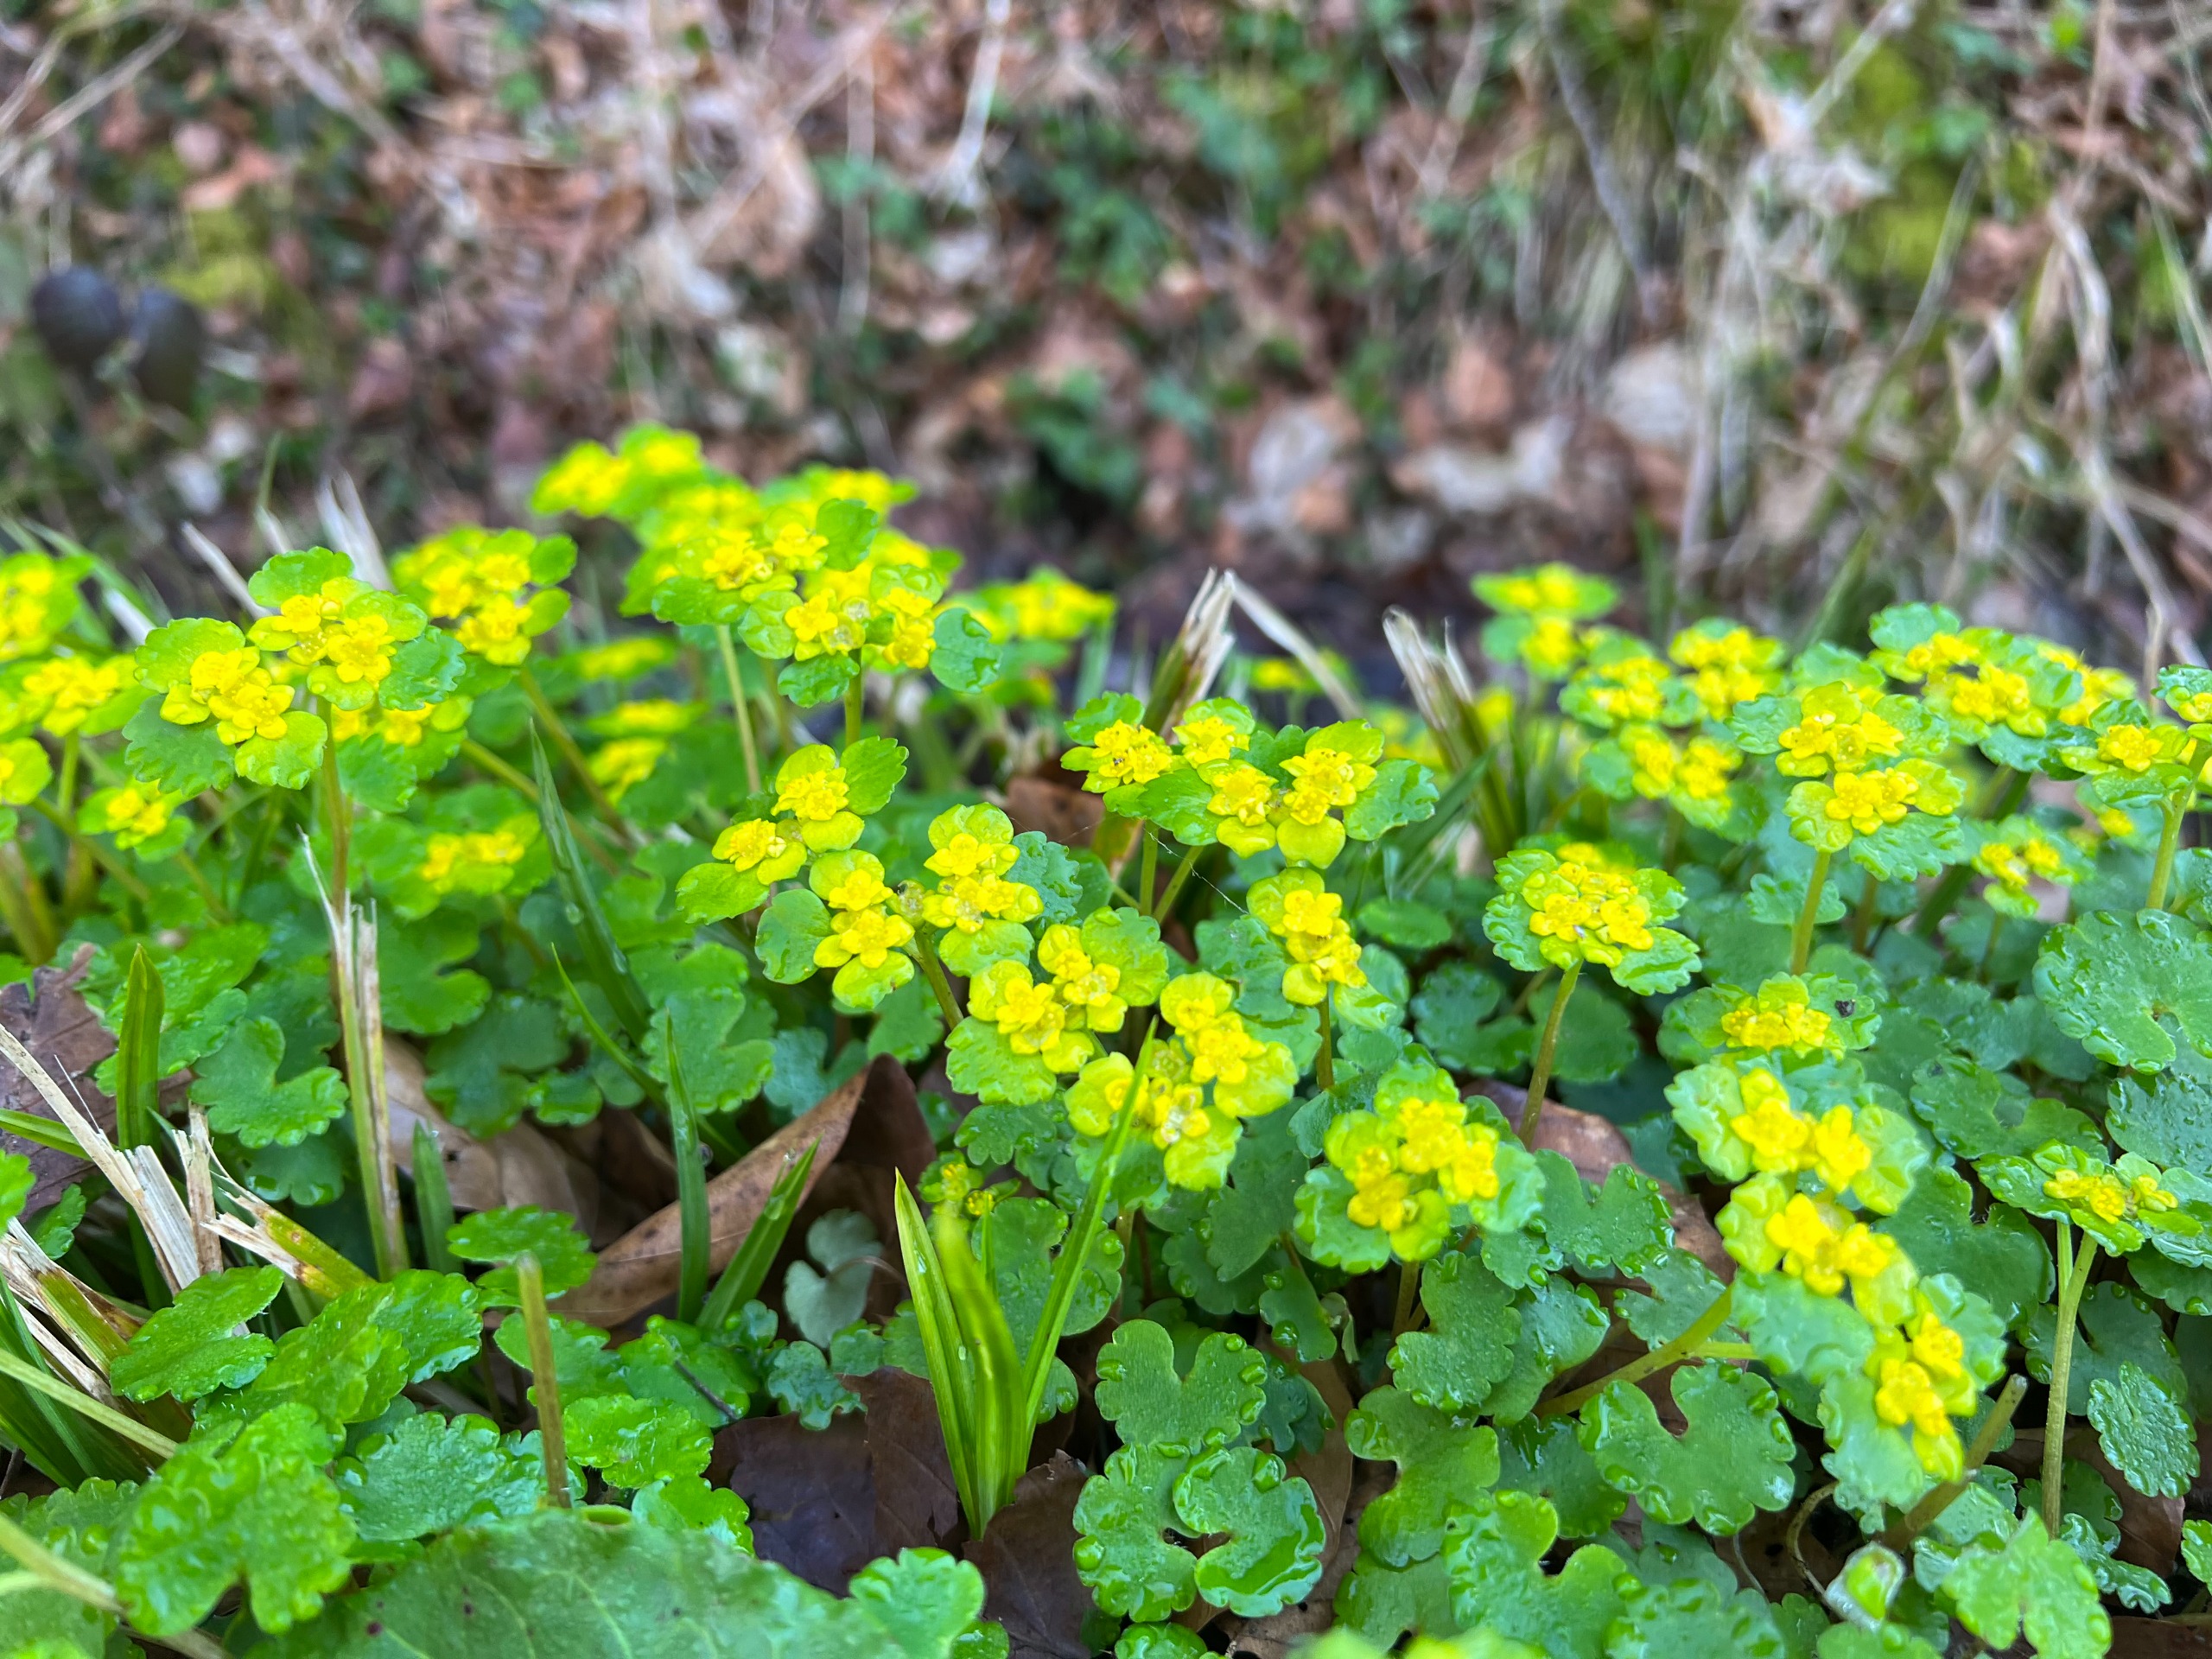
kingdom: Plantae
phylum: Tracheophyta
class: Magnoliopsida
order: Saxifragales
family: Saxifragaceae
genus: Chrysosplenium
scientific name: Chrysosplenium alternifolium
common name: Almindelig milturt
